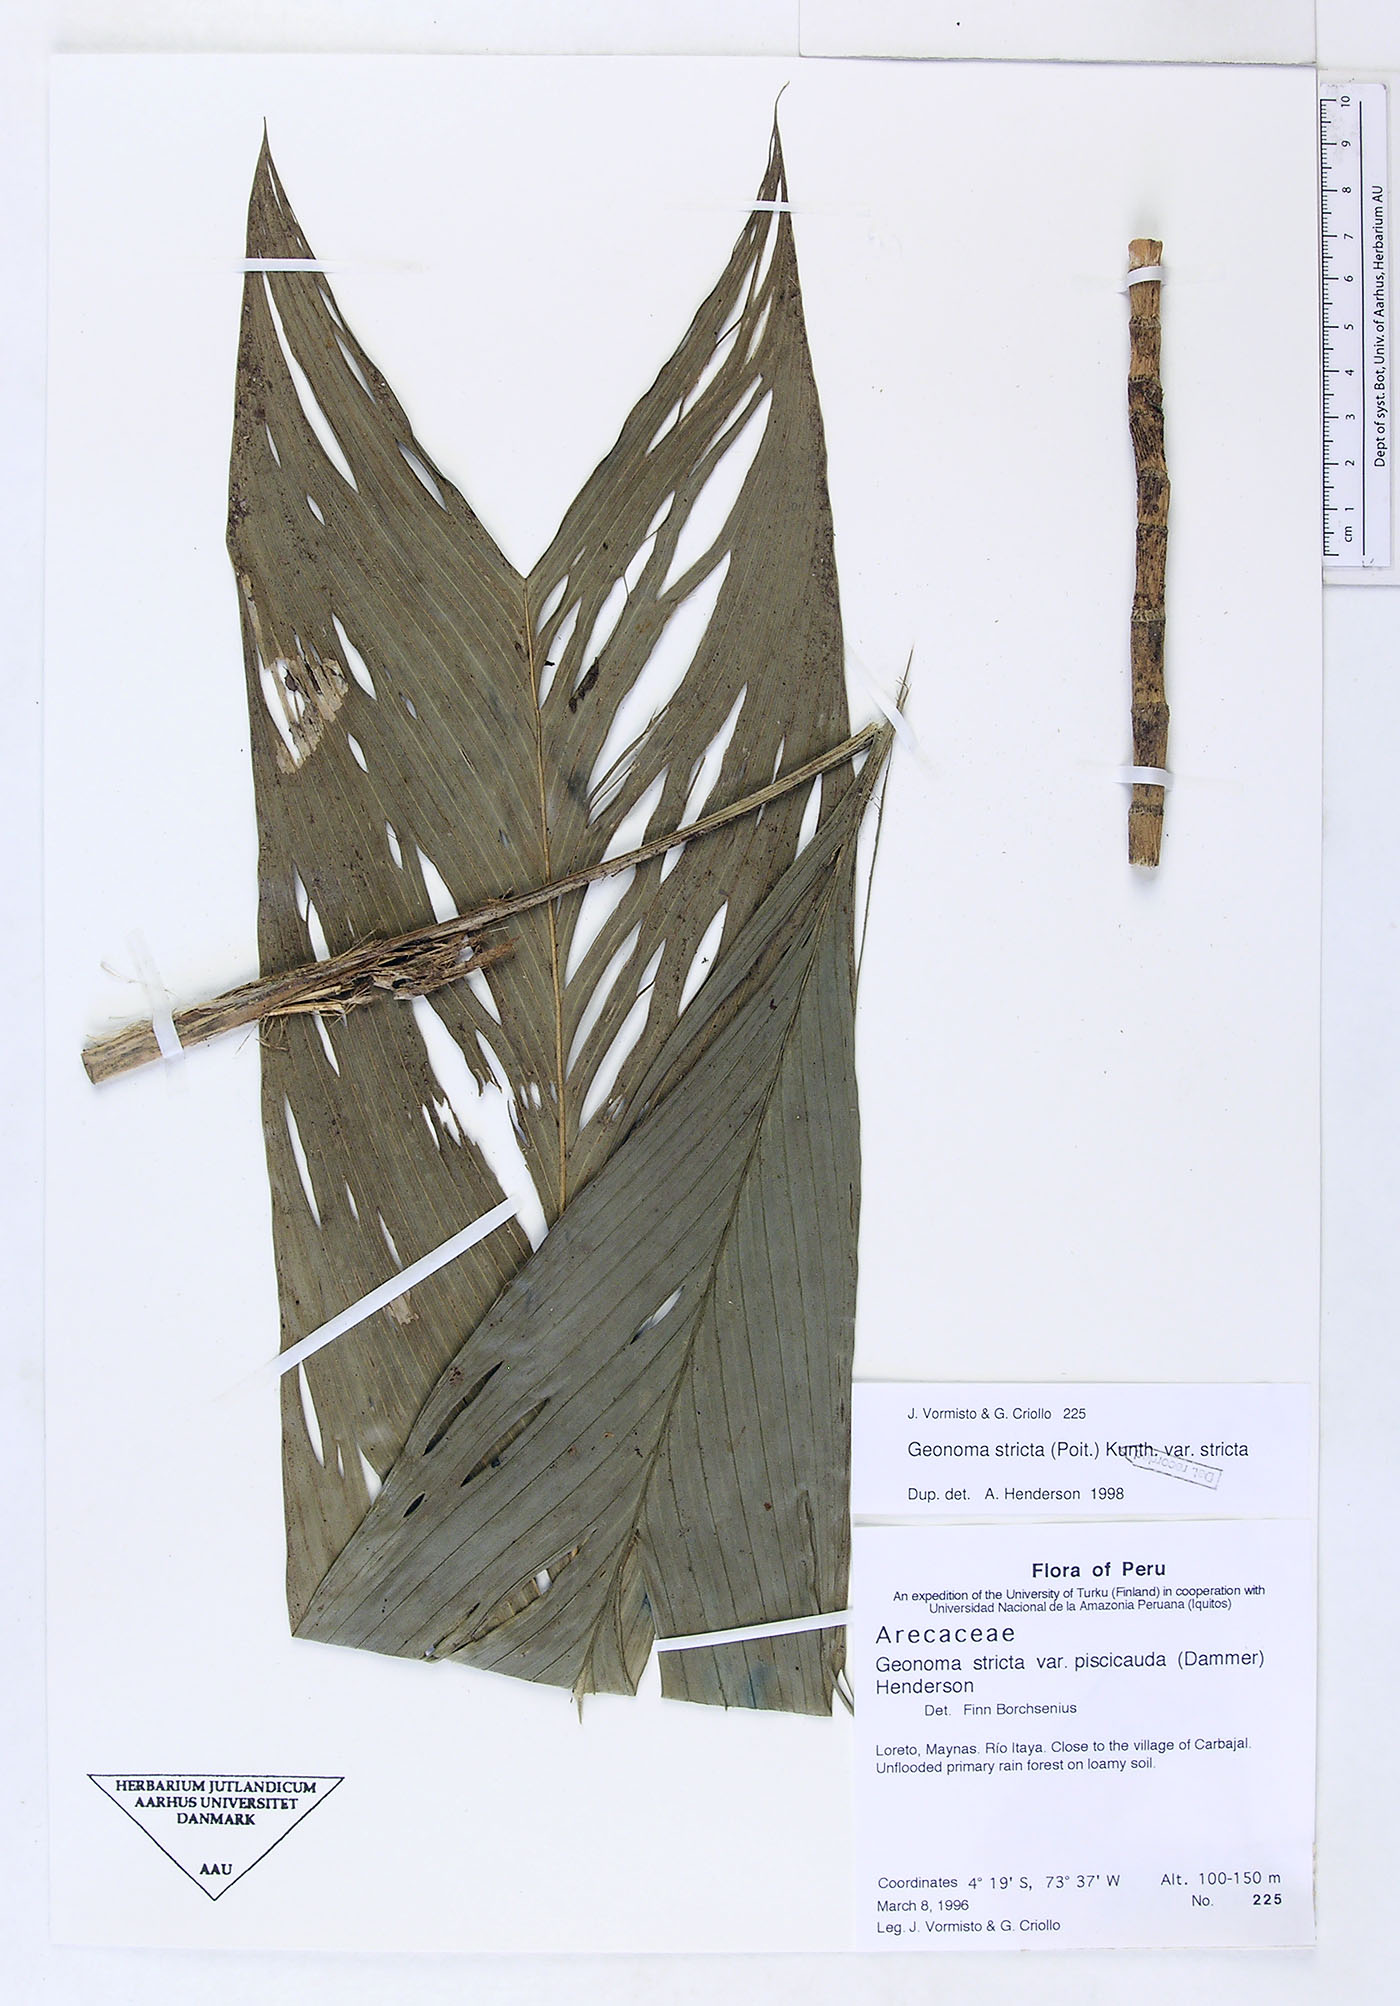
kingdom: Plantae
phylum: Tracheophyta
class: Liliopsida
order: Arecales
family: Arecaceae
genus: Geonoma
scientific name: Geonoma stricta
